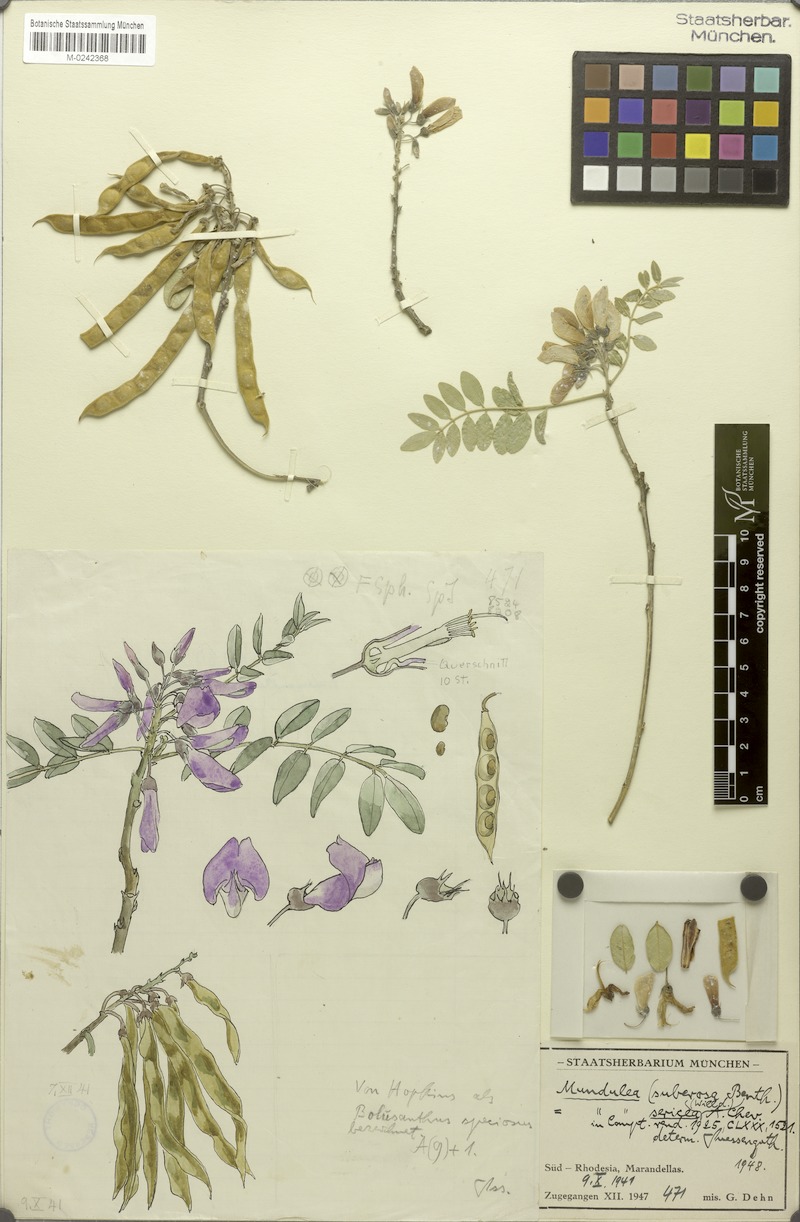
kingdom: Plantae
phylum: Tracheophyta
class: Magnoliopsida
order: Fabales
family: Fabaceae
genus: Mundulea
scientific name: Mundulea sericea
